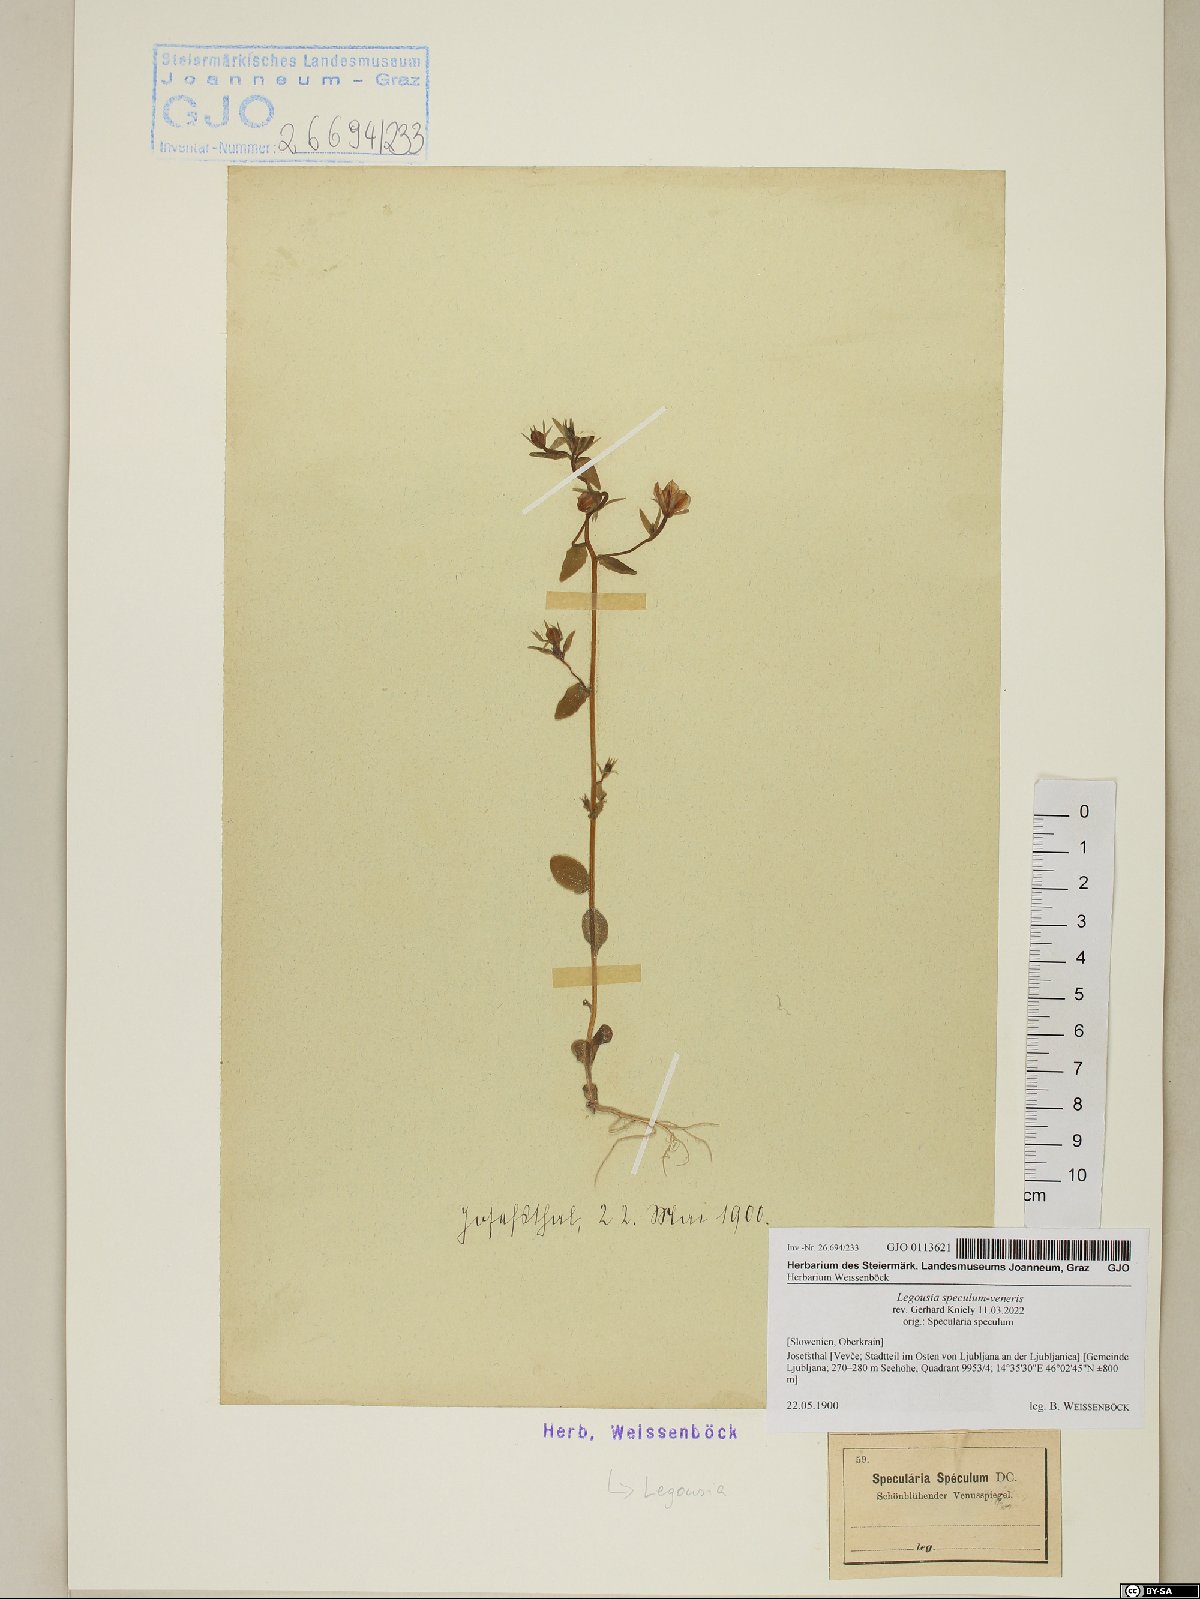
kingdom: Plantae
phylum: Tracheophyta
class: Magnoliopsida
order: Asterales
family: Campanulaceae
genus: Legousia
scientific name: Legousia speculum-veneris
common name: Large venus's-looking-glass
